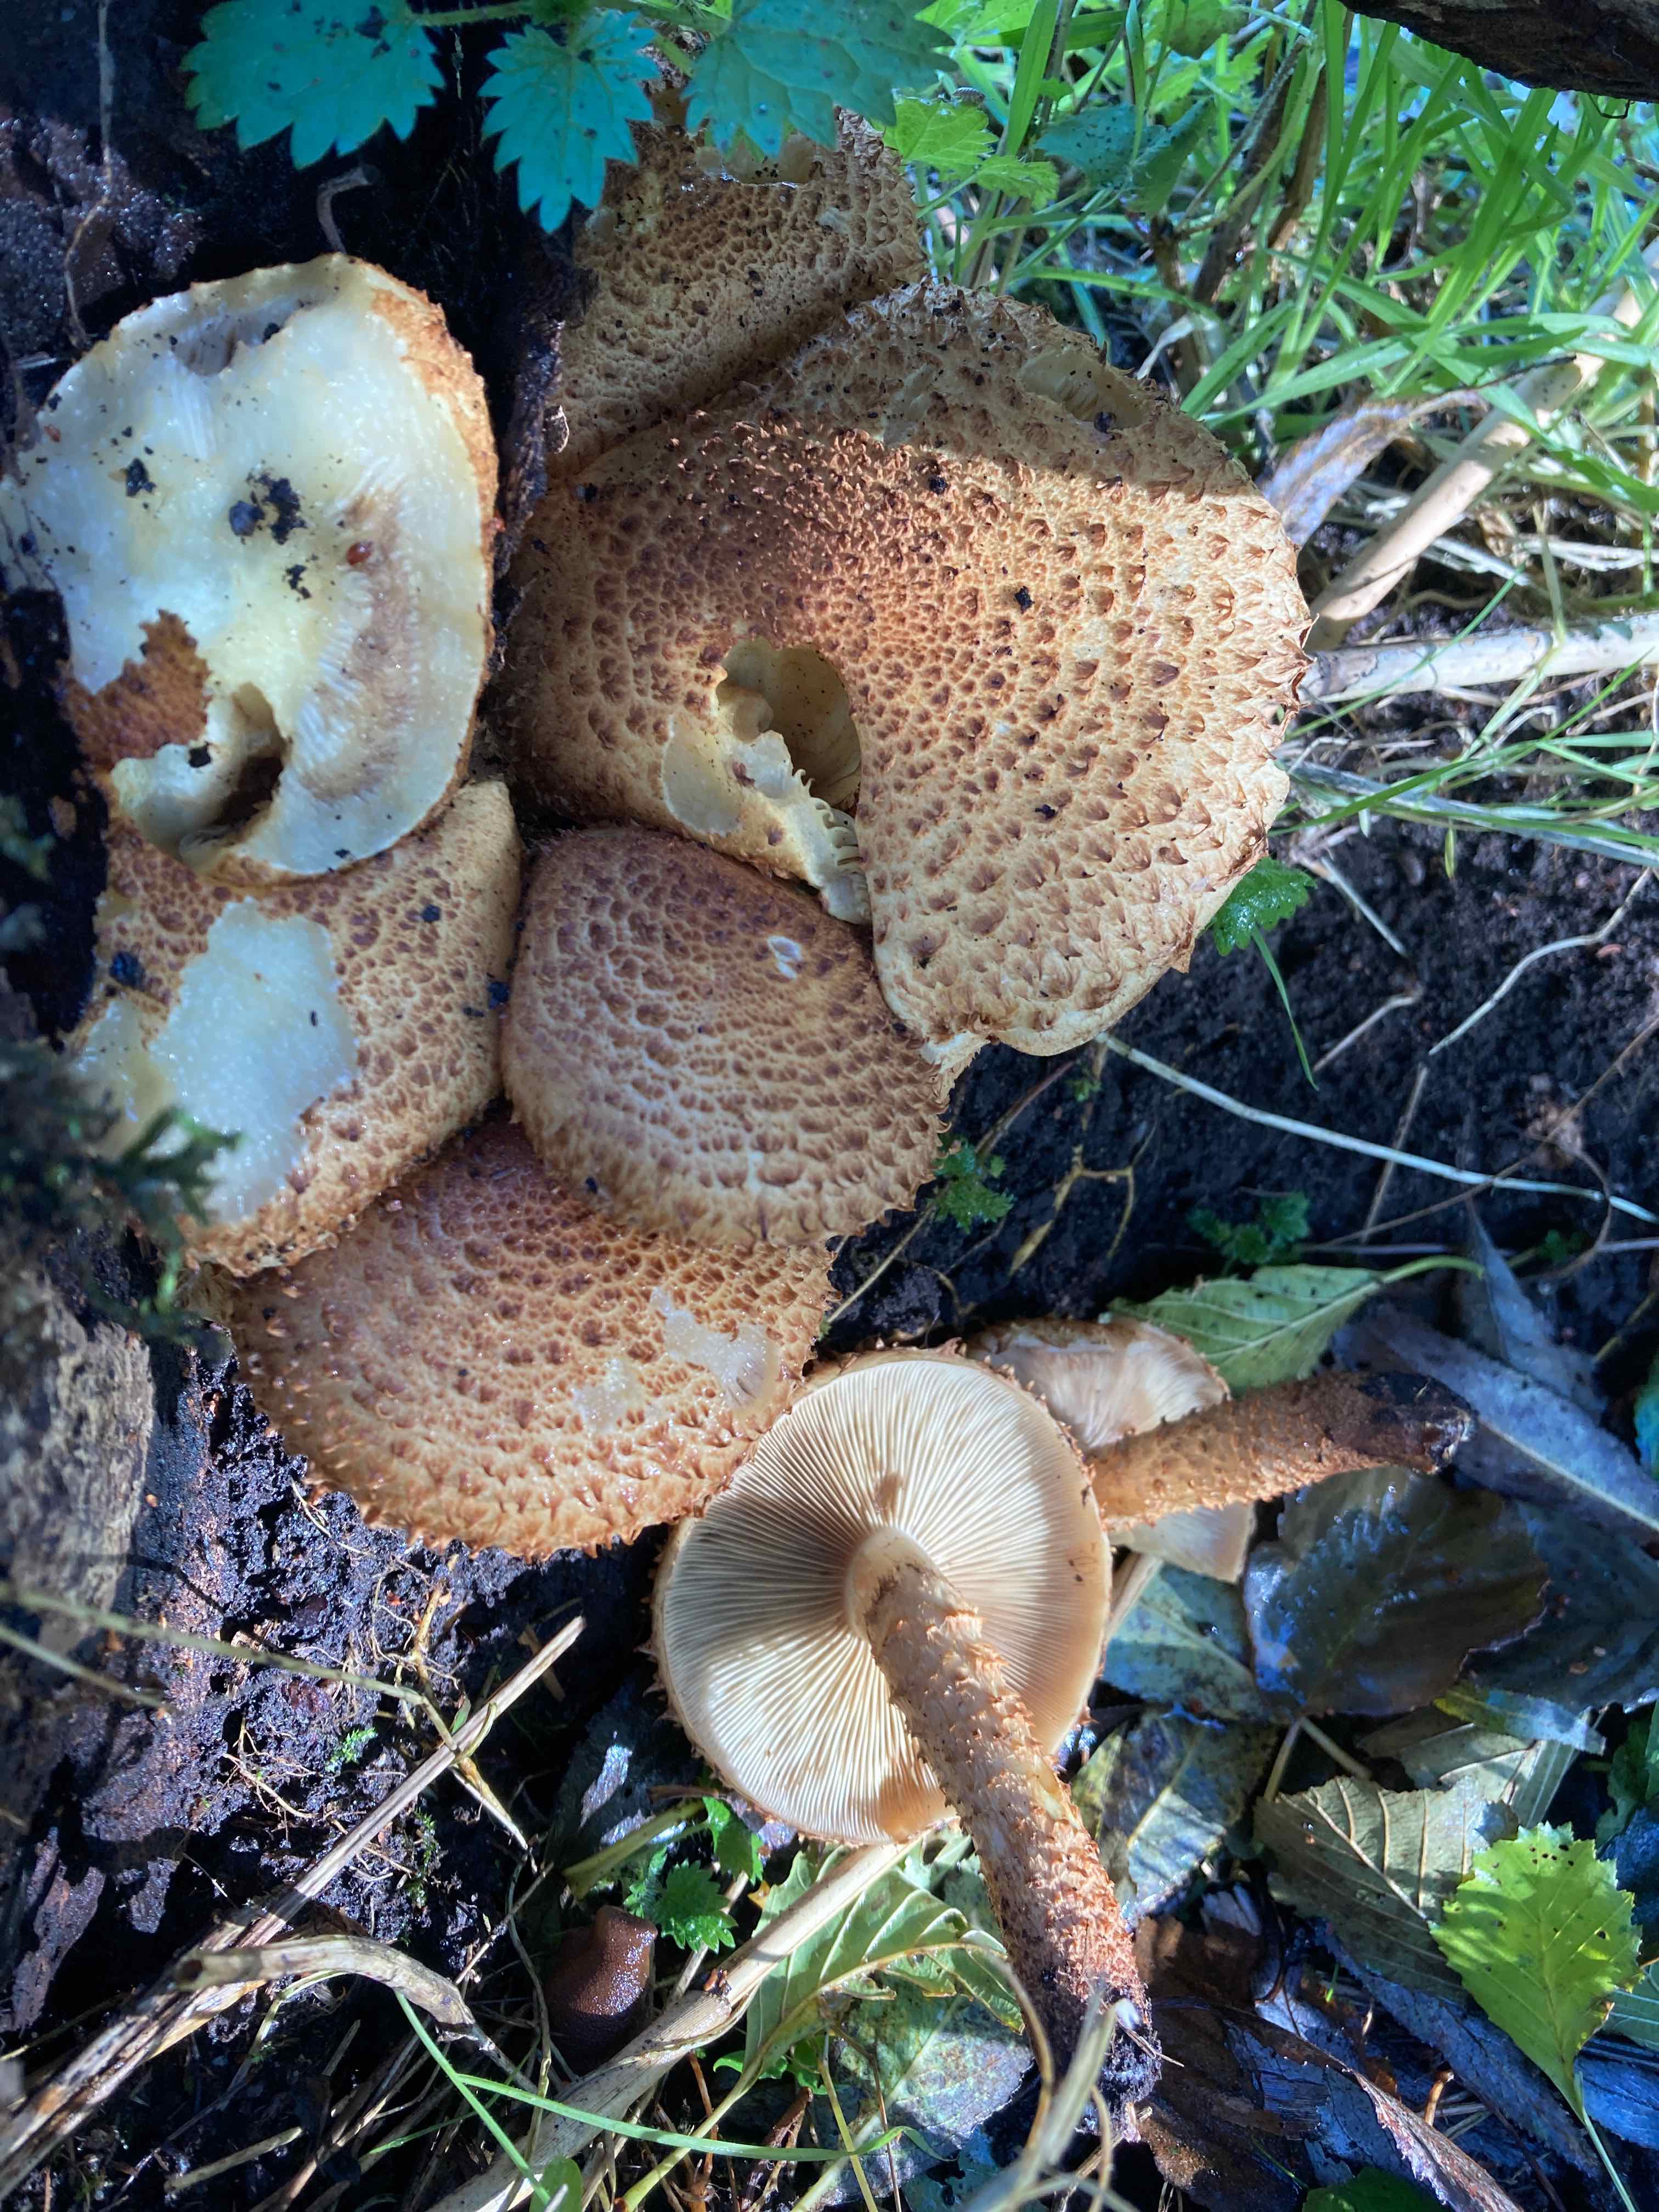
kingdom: Fungi
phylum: Basidiomycota
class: Agaricomycetes
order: Agaricales
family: Strophariaceae
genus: Pholiota
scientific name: Pholiota squarrosa
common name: krumskællet skælhat
